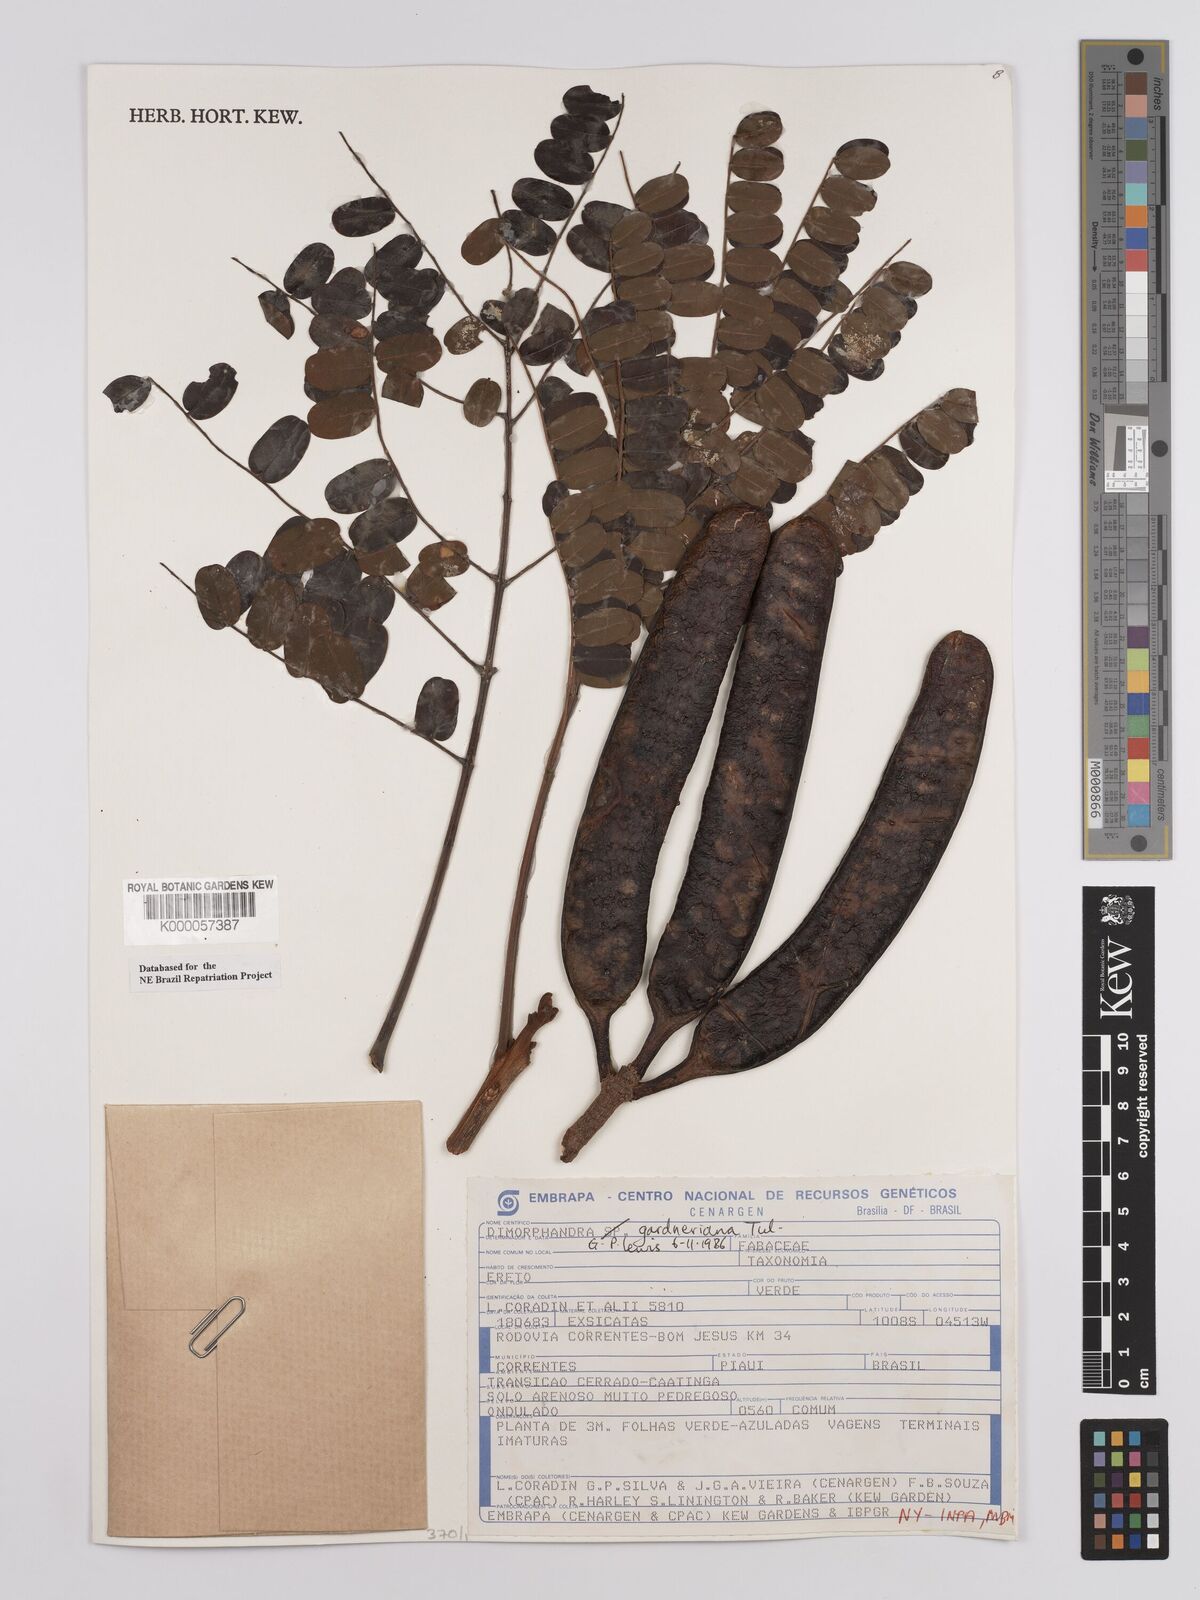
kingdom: Plantae
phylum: Tracheophyta
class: Magnoliopsida
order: Fabales
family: Fabaceae
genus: Dimorphandra
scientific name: Dimorphandra gardneriana
